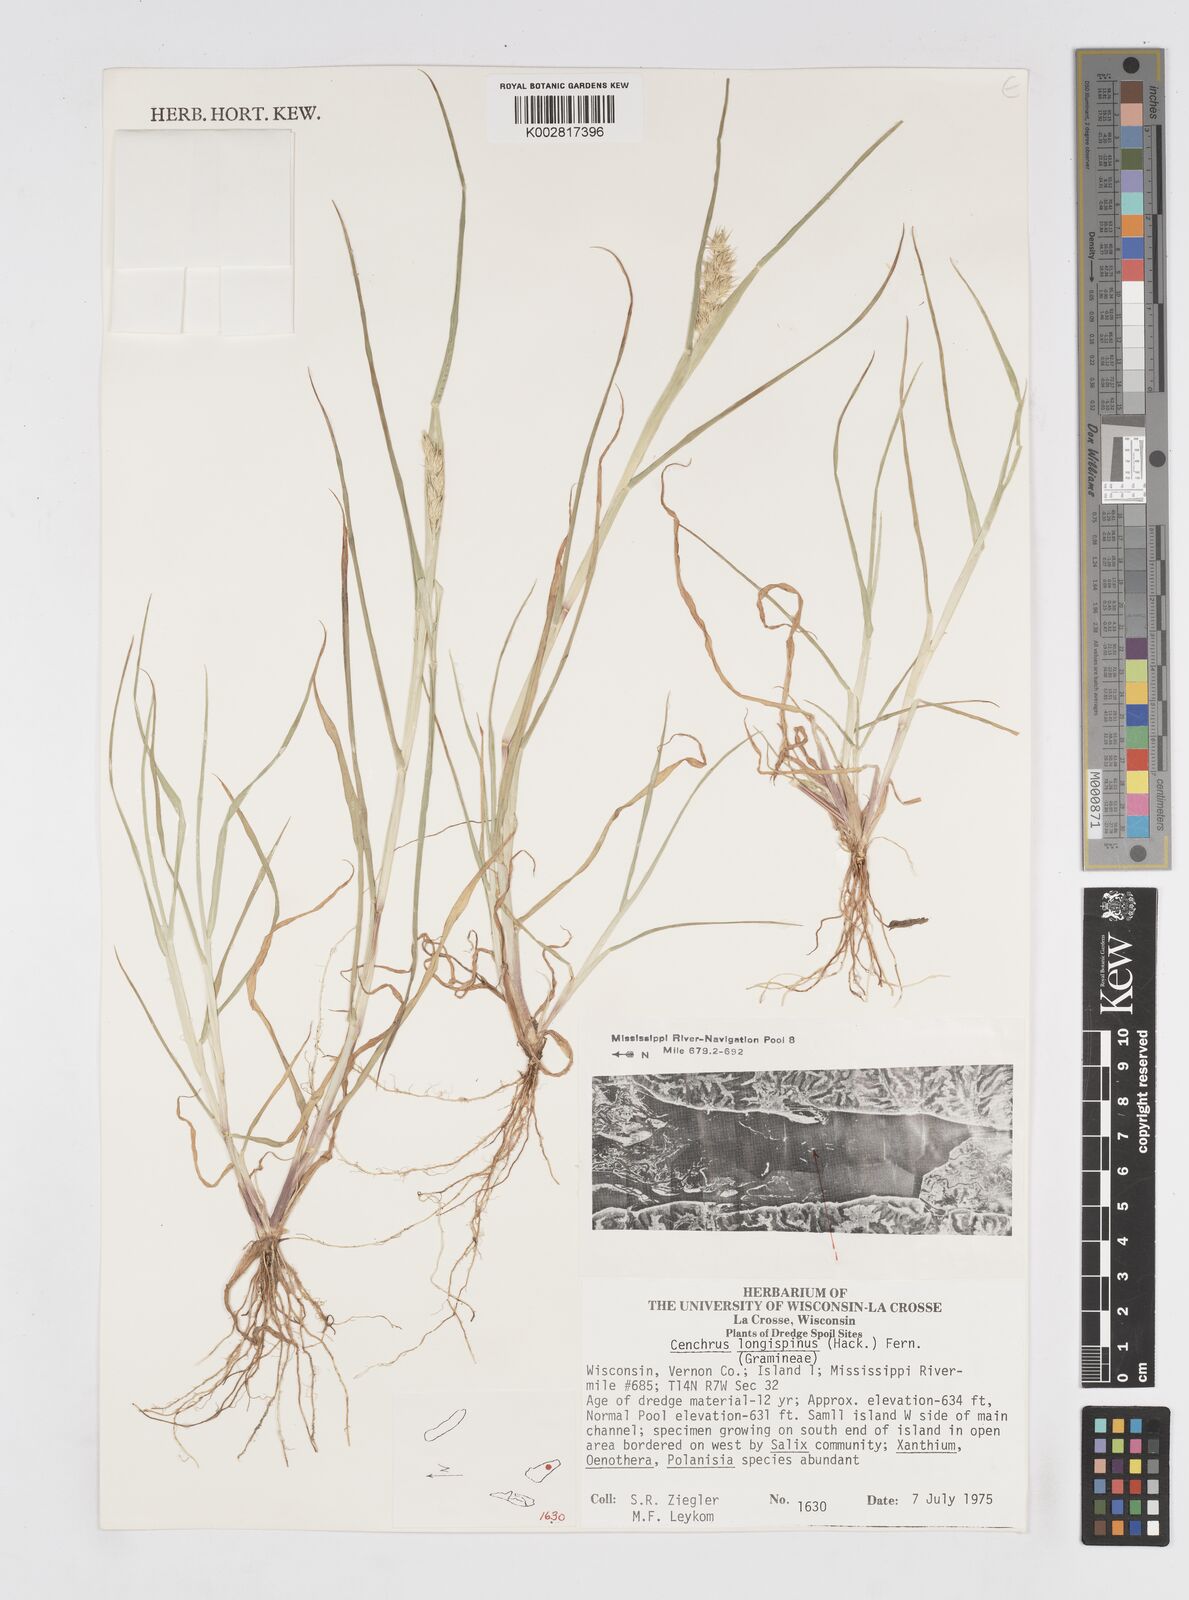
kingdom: Plantae
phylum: Tracheophyta
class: Liliopsida
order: Poales
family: Poaceae
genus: Cenchrus
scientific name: Cenchrus longispinus
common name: Mat sandbur
